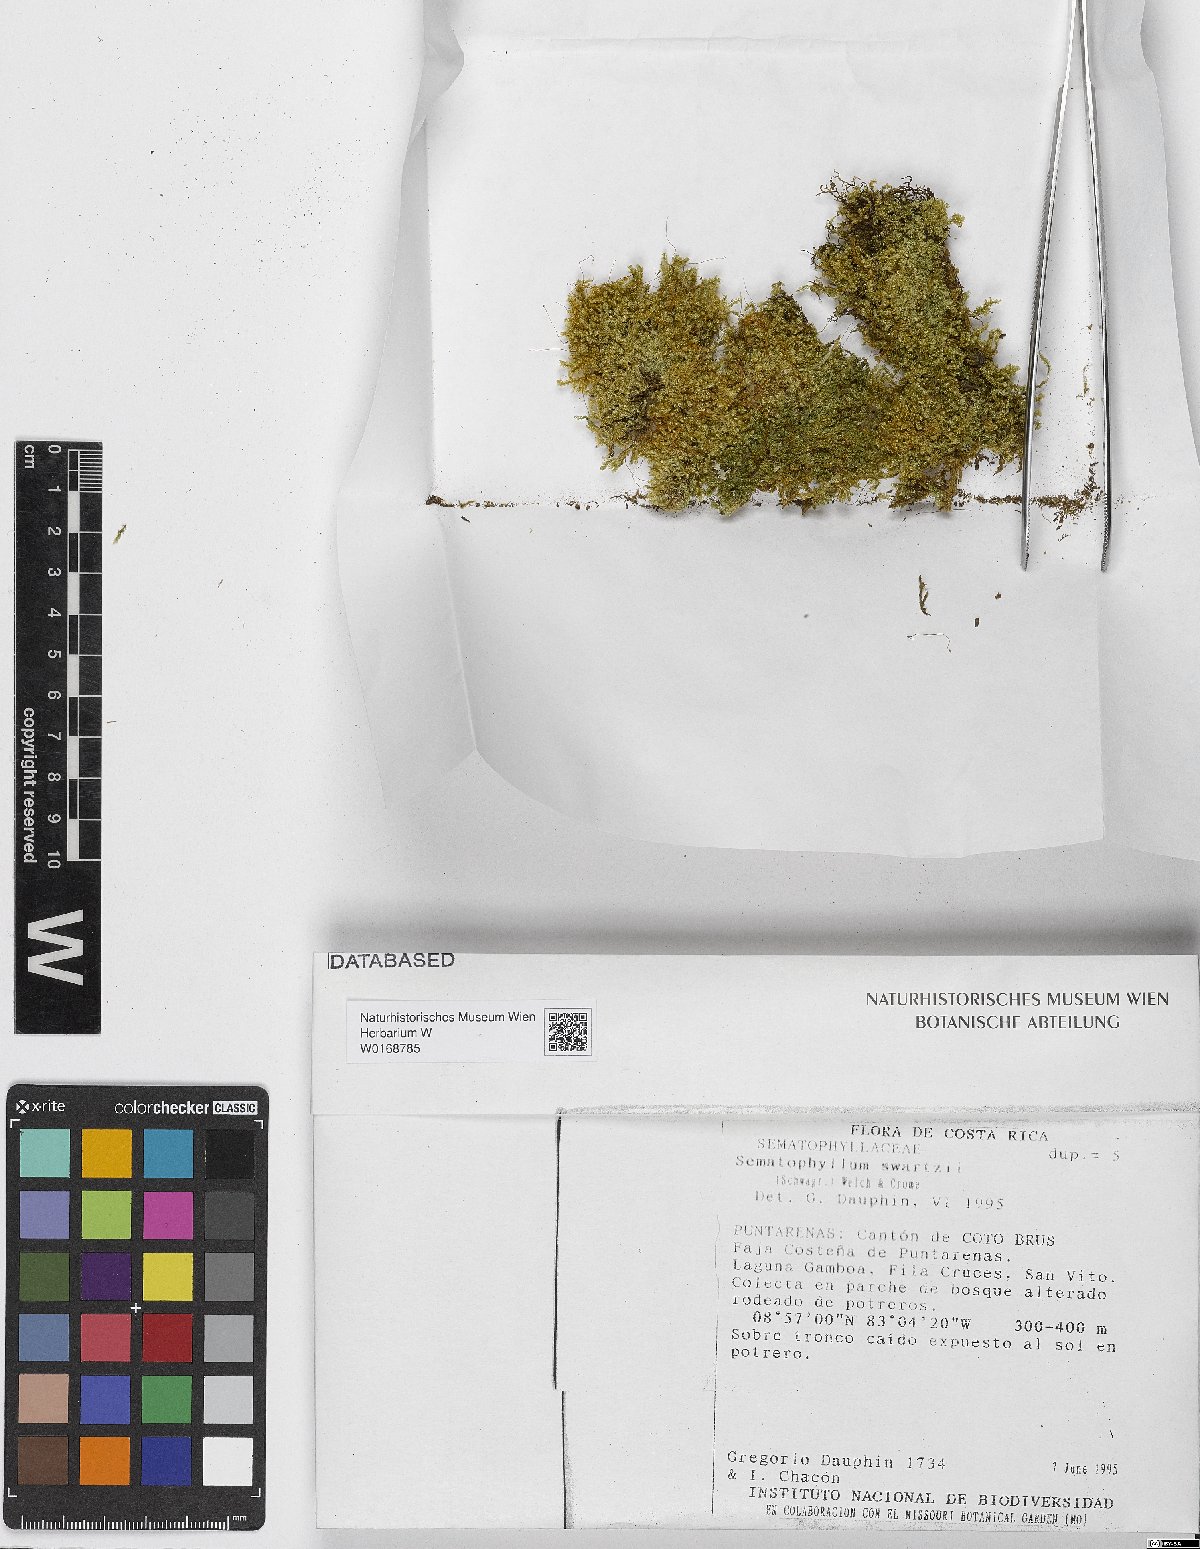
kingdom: Plantae
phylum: Bryophyta
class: Bryopsida
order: Hypnales
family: Sematophyllaceae
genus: Sematophyllum
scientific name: Sematophyllum swartzii
